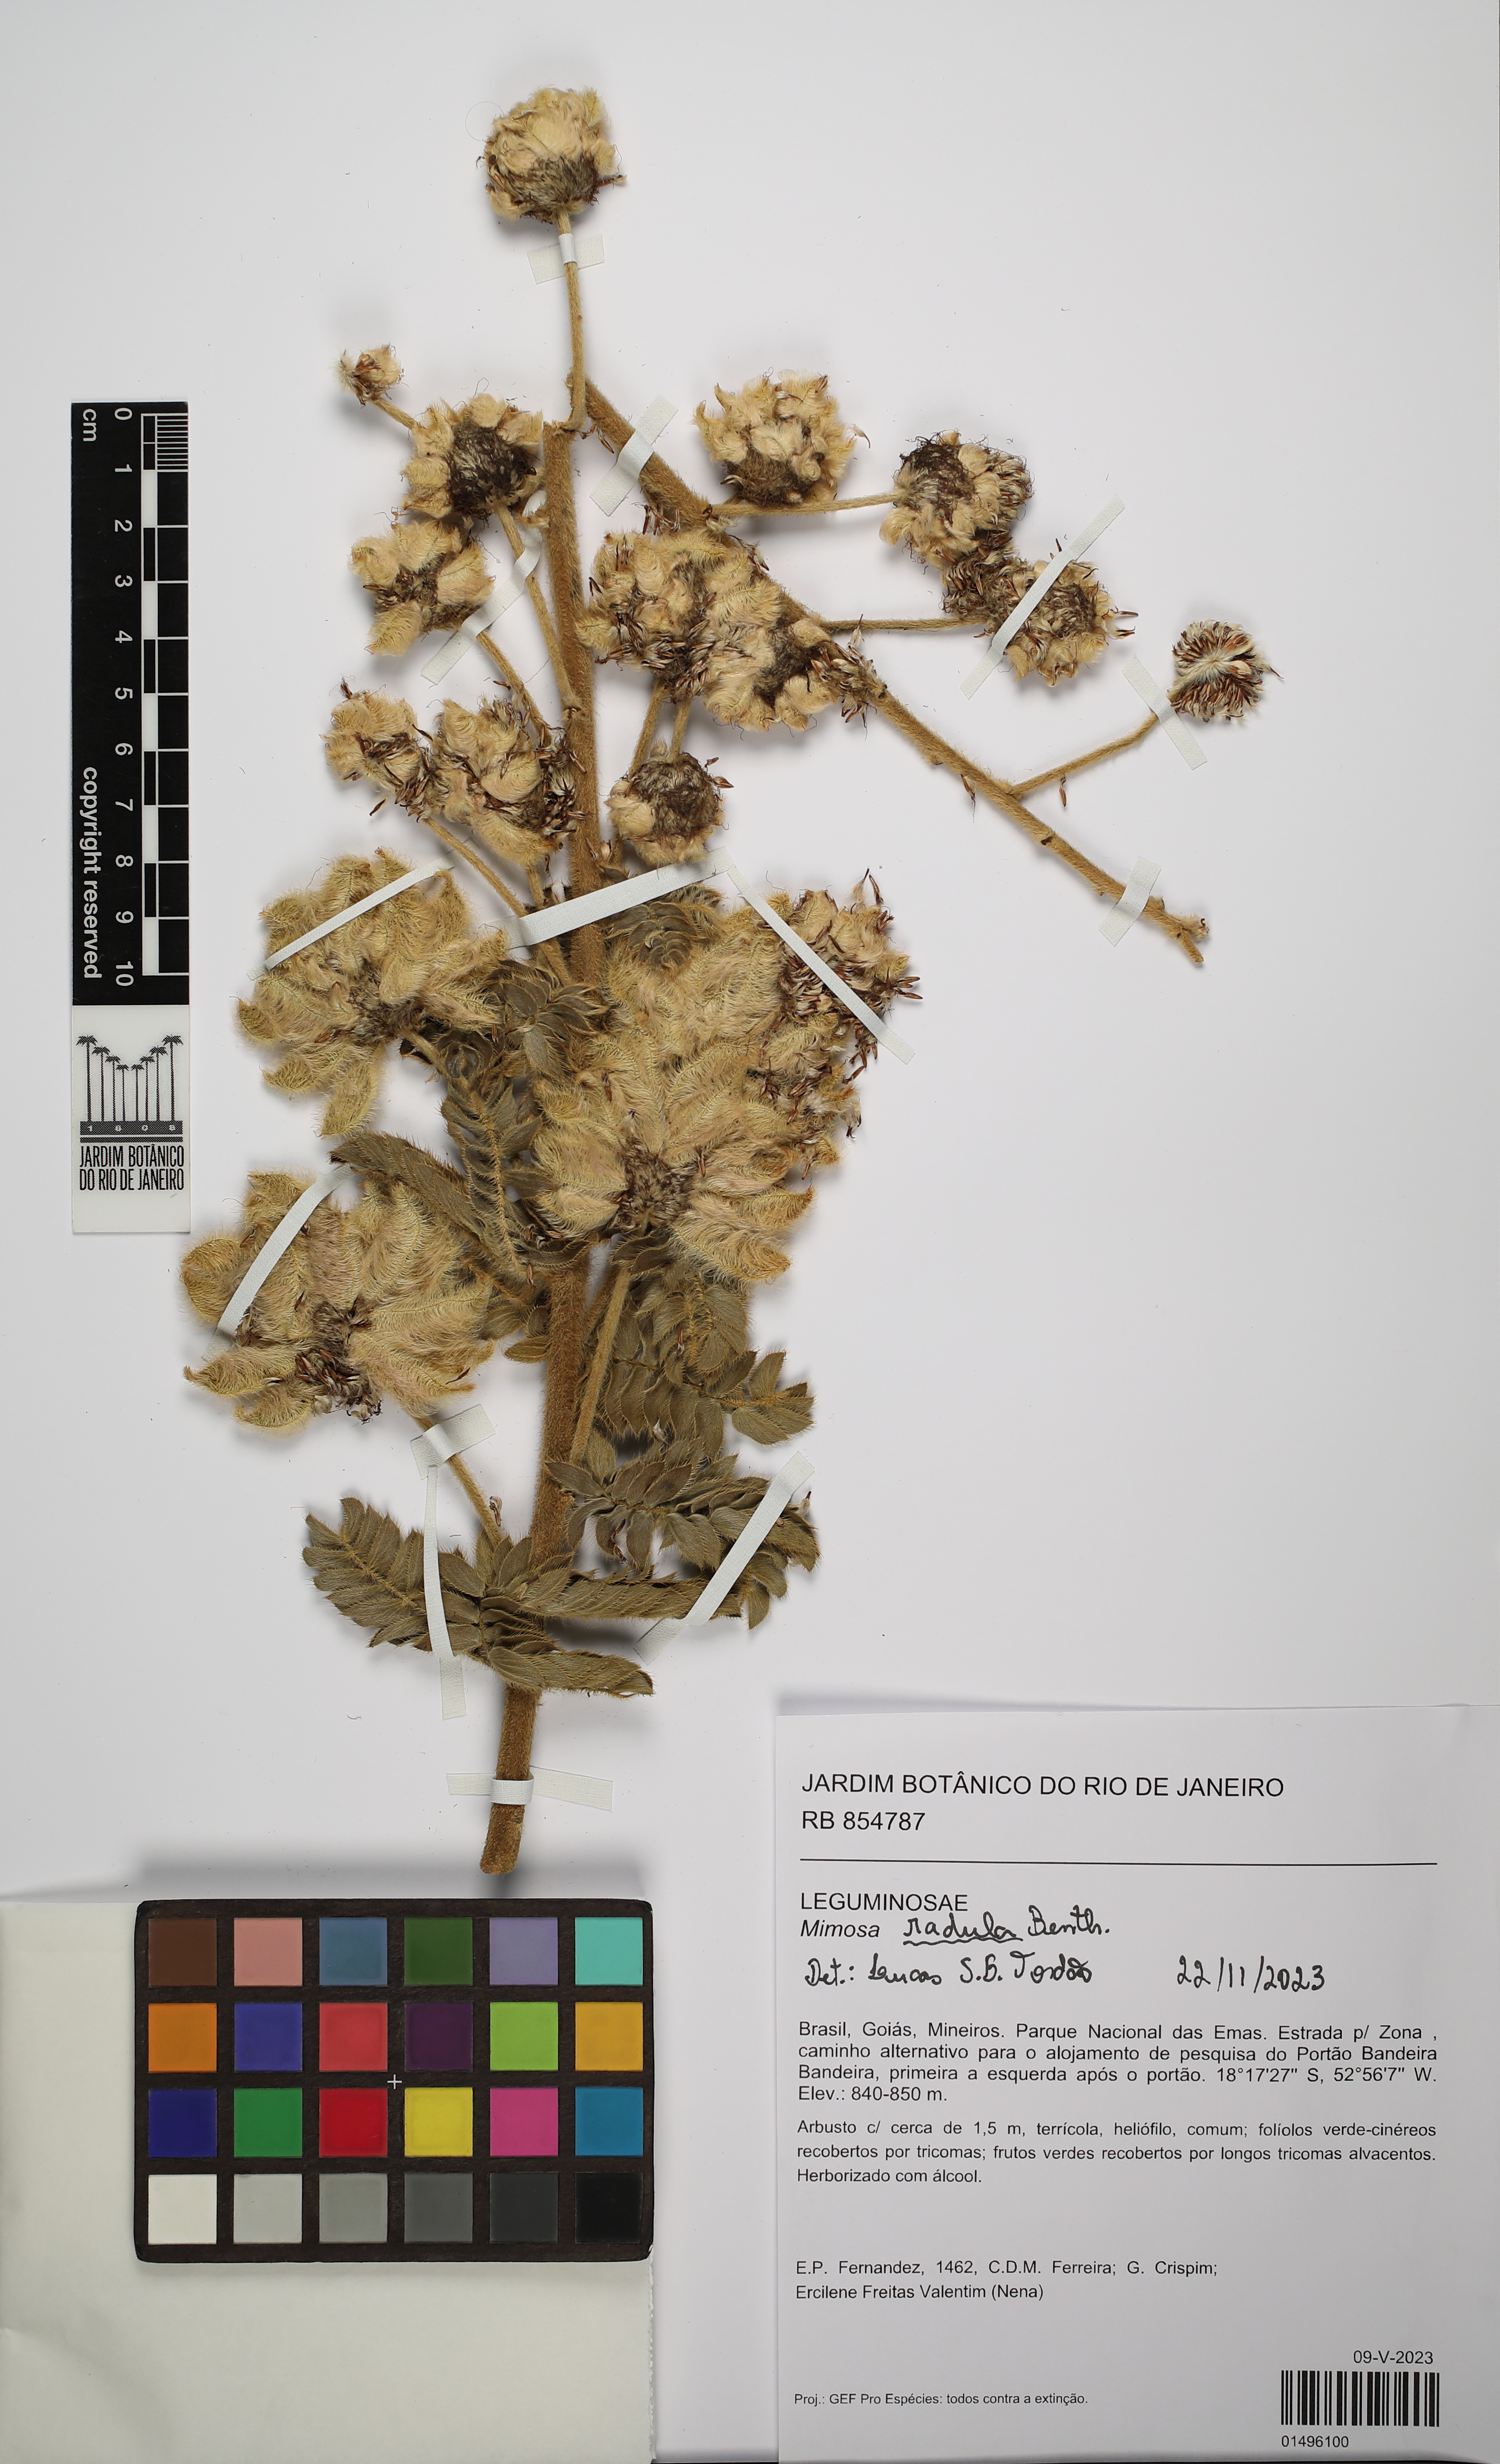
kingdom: Plantae
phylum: Tracheophyta
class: Magnoliopsida
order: Fabales
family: Fabaceae
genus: Mimosa
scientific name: Mimosa radula
